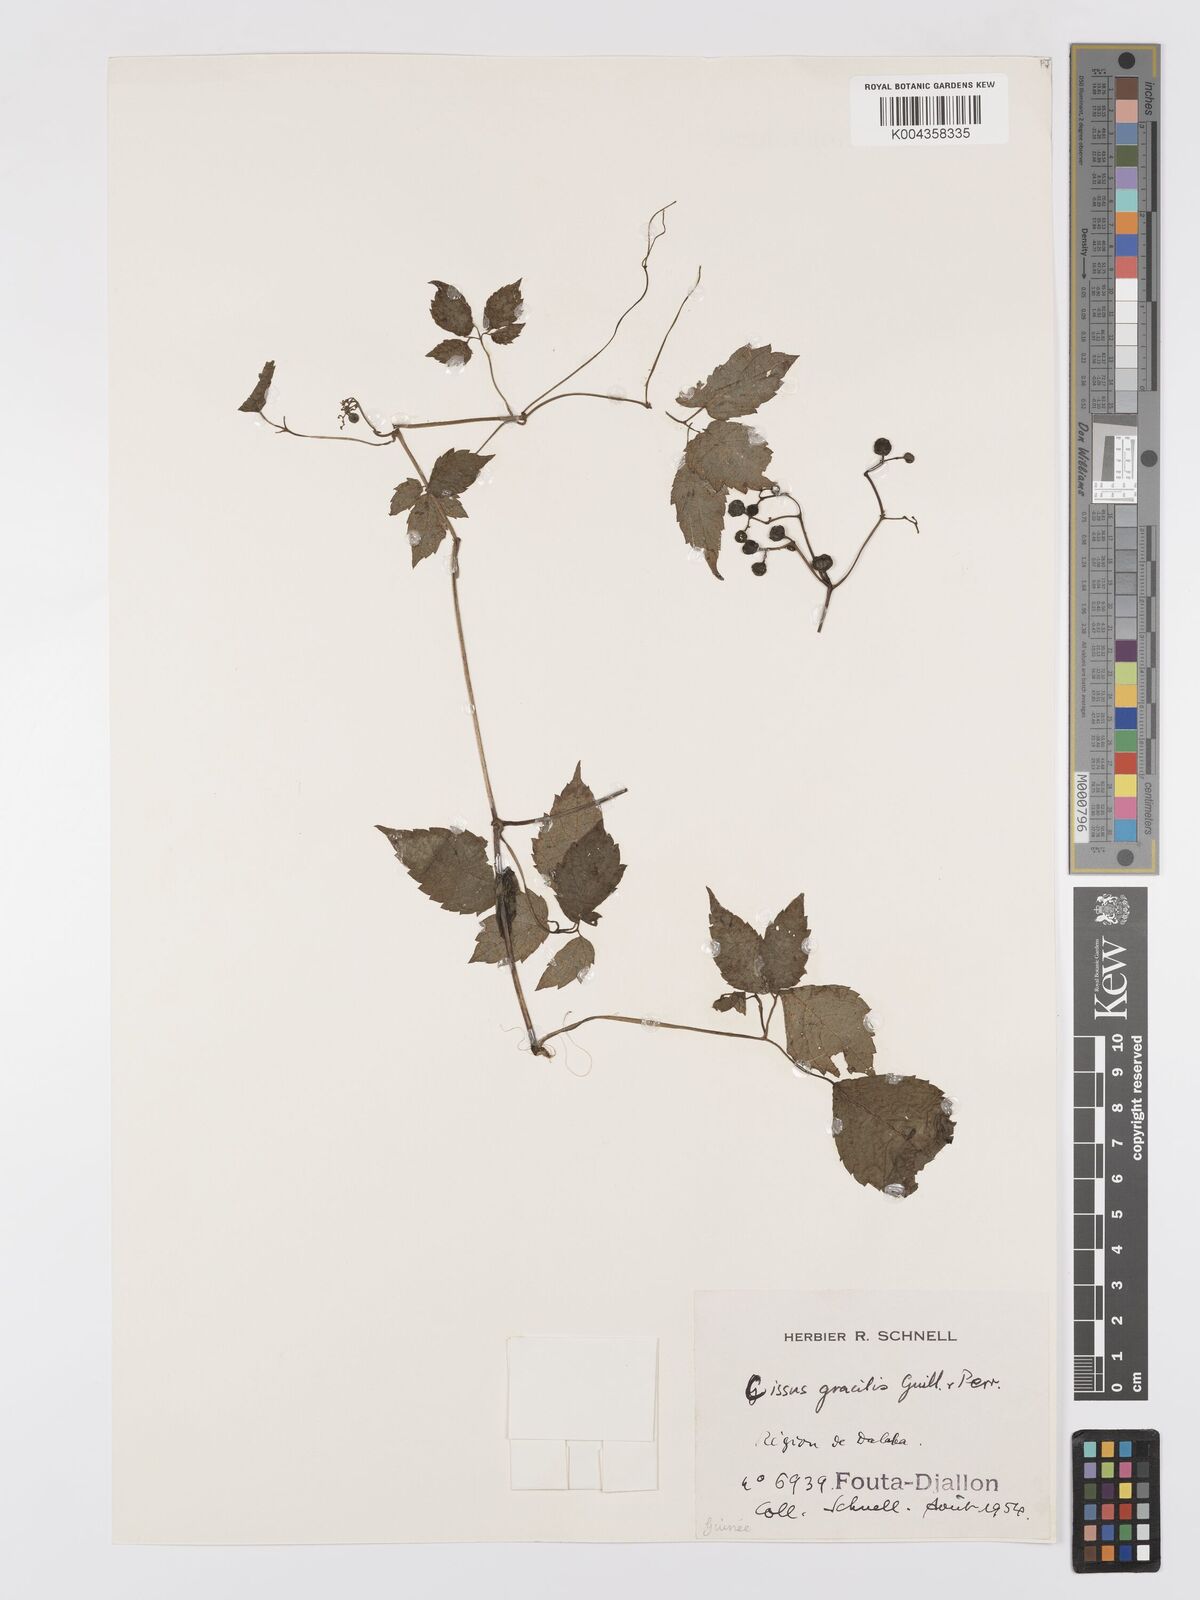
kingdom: Plantae
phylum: Tracheophyta
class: Magnoliopsida
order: Vitales
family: Vitaceae
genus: Afrocayratia
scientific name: Afrocayratia gracilis
